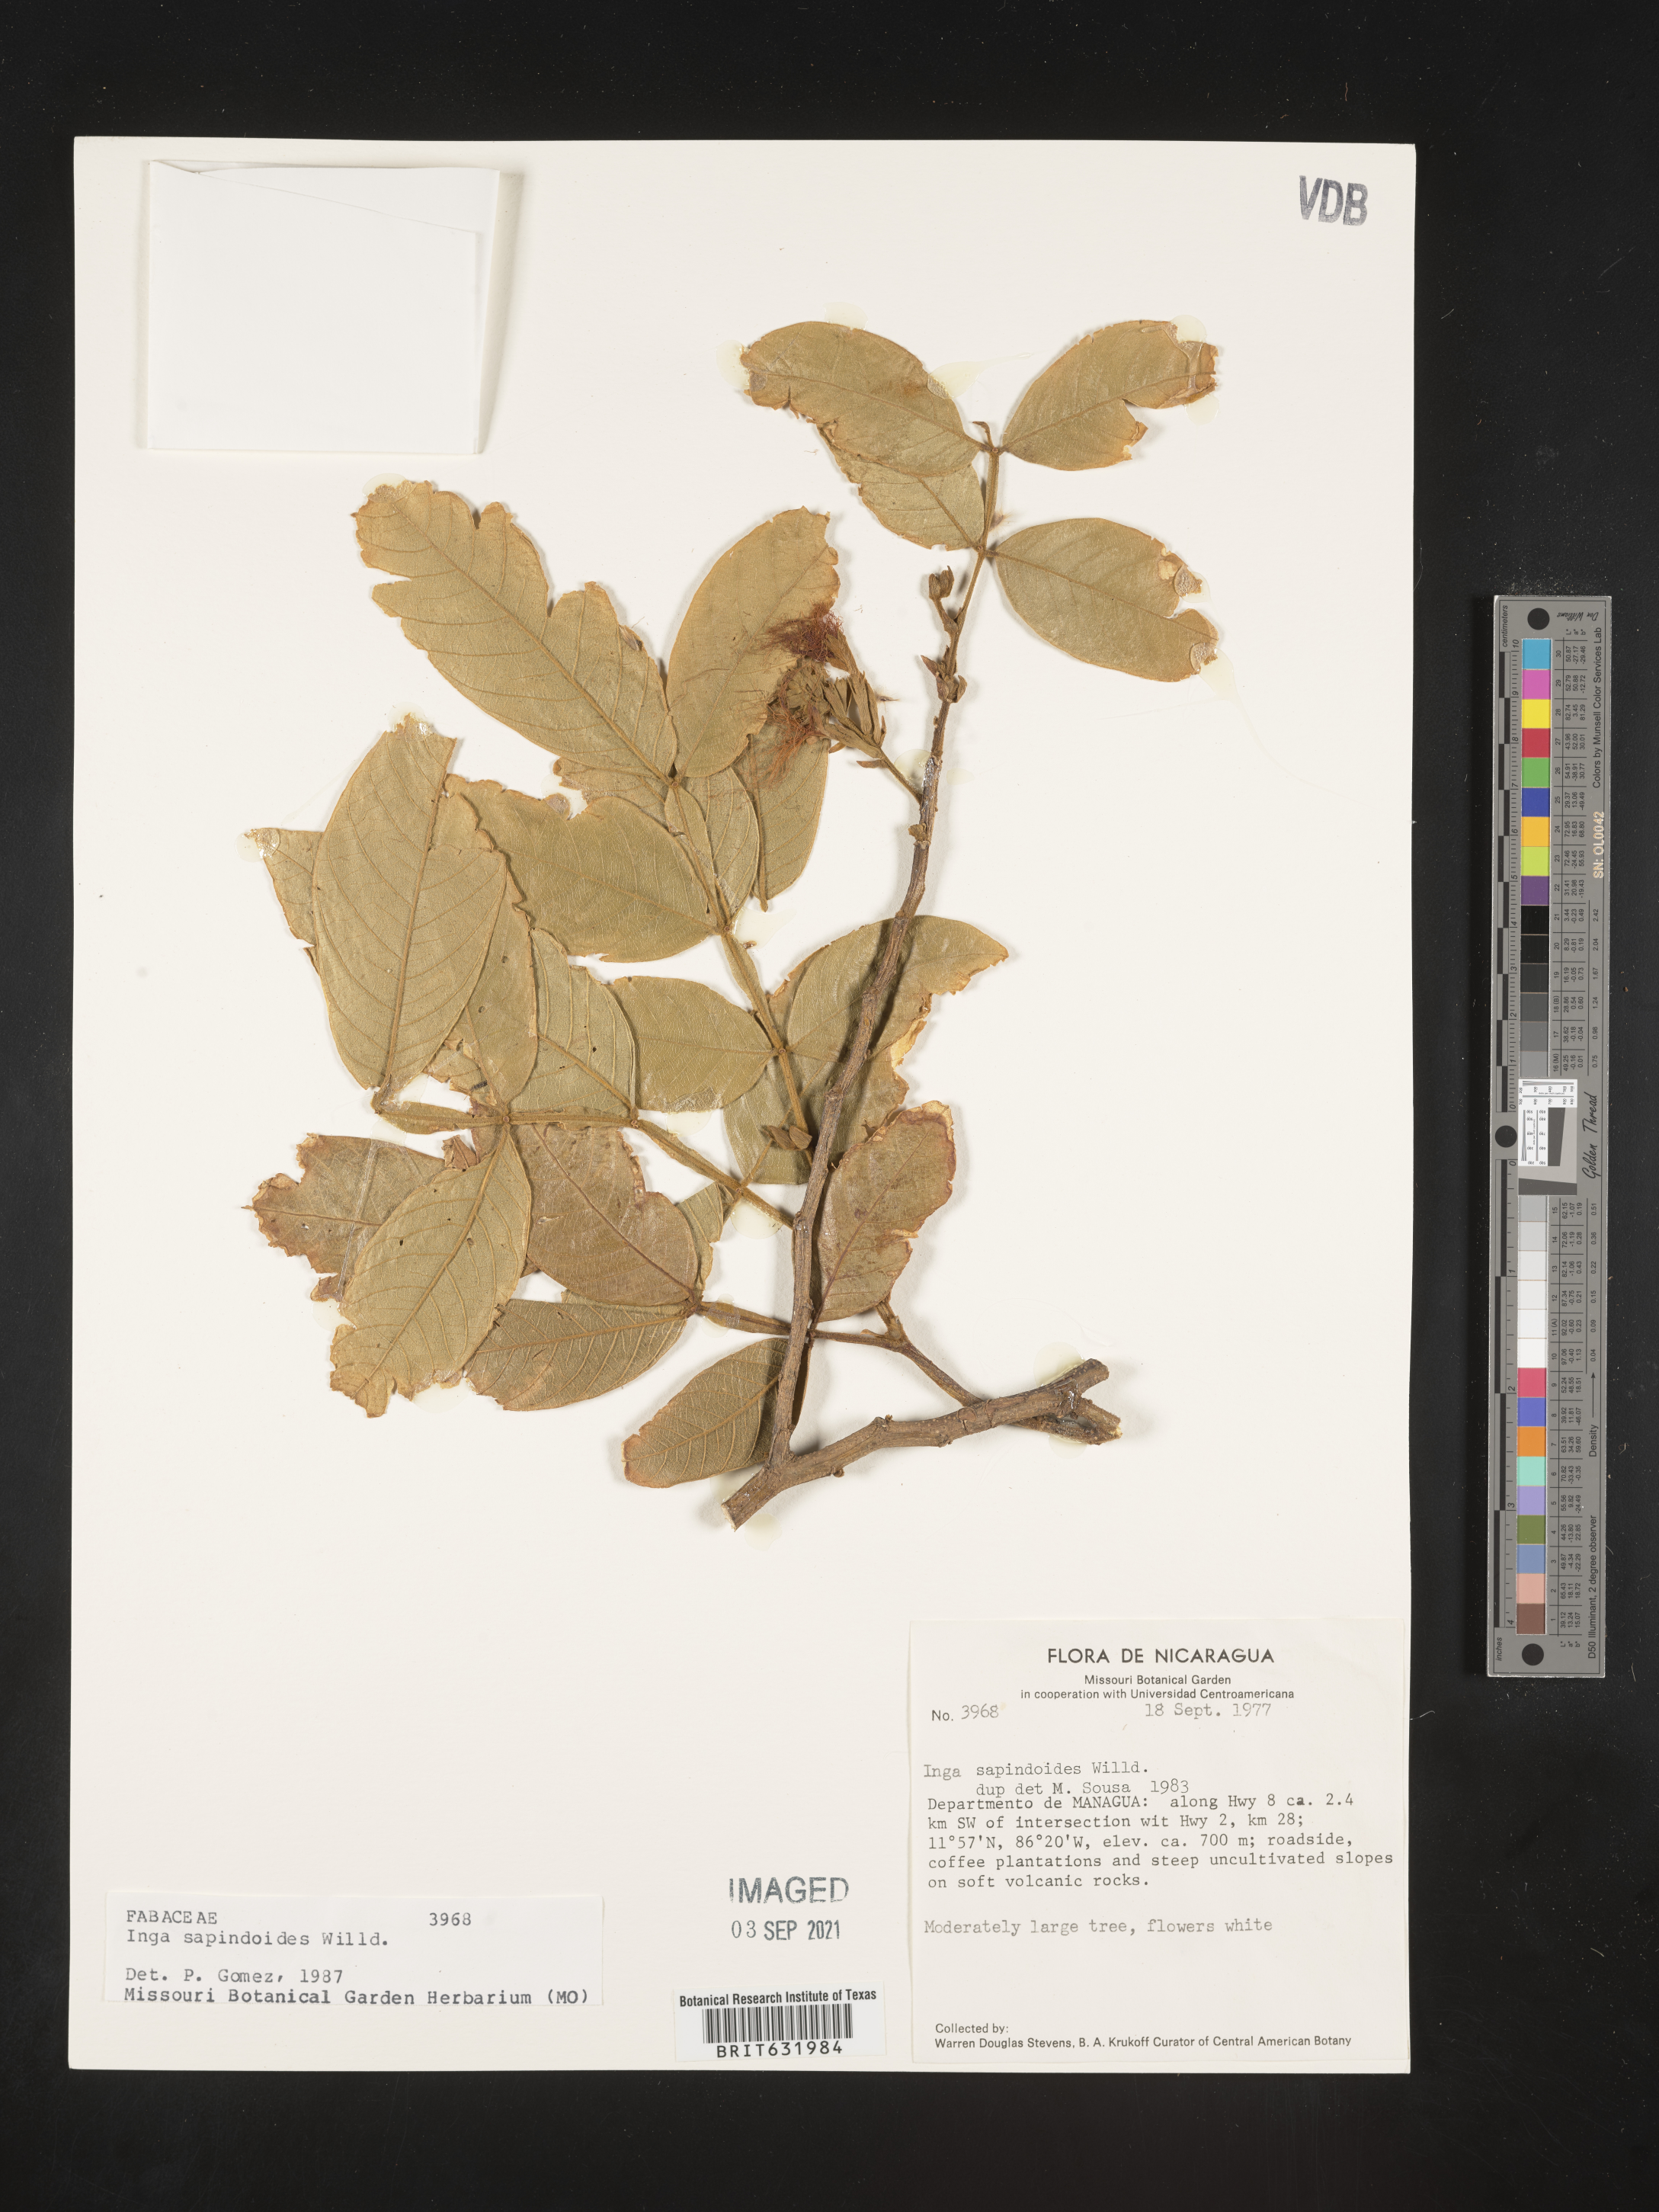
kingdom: Plantae
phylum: Tracheophyta
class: Magnoliopsida
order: Fabales
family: Fabaceae
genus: Inga
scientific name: Inga
